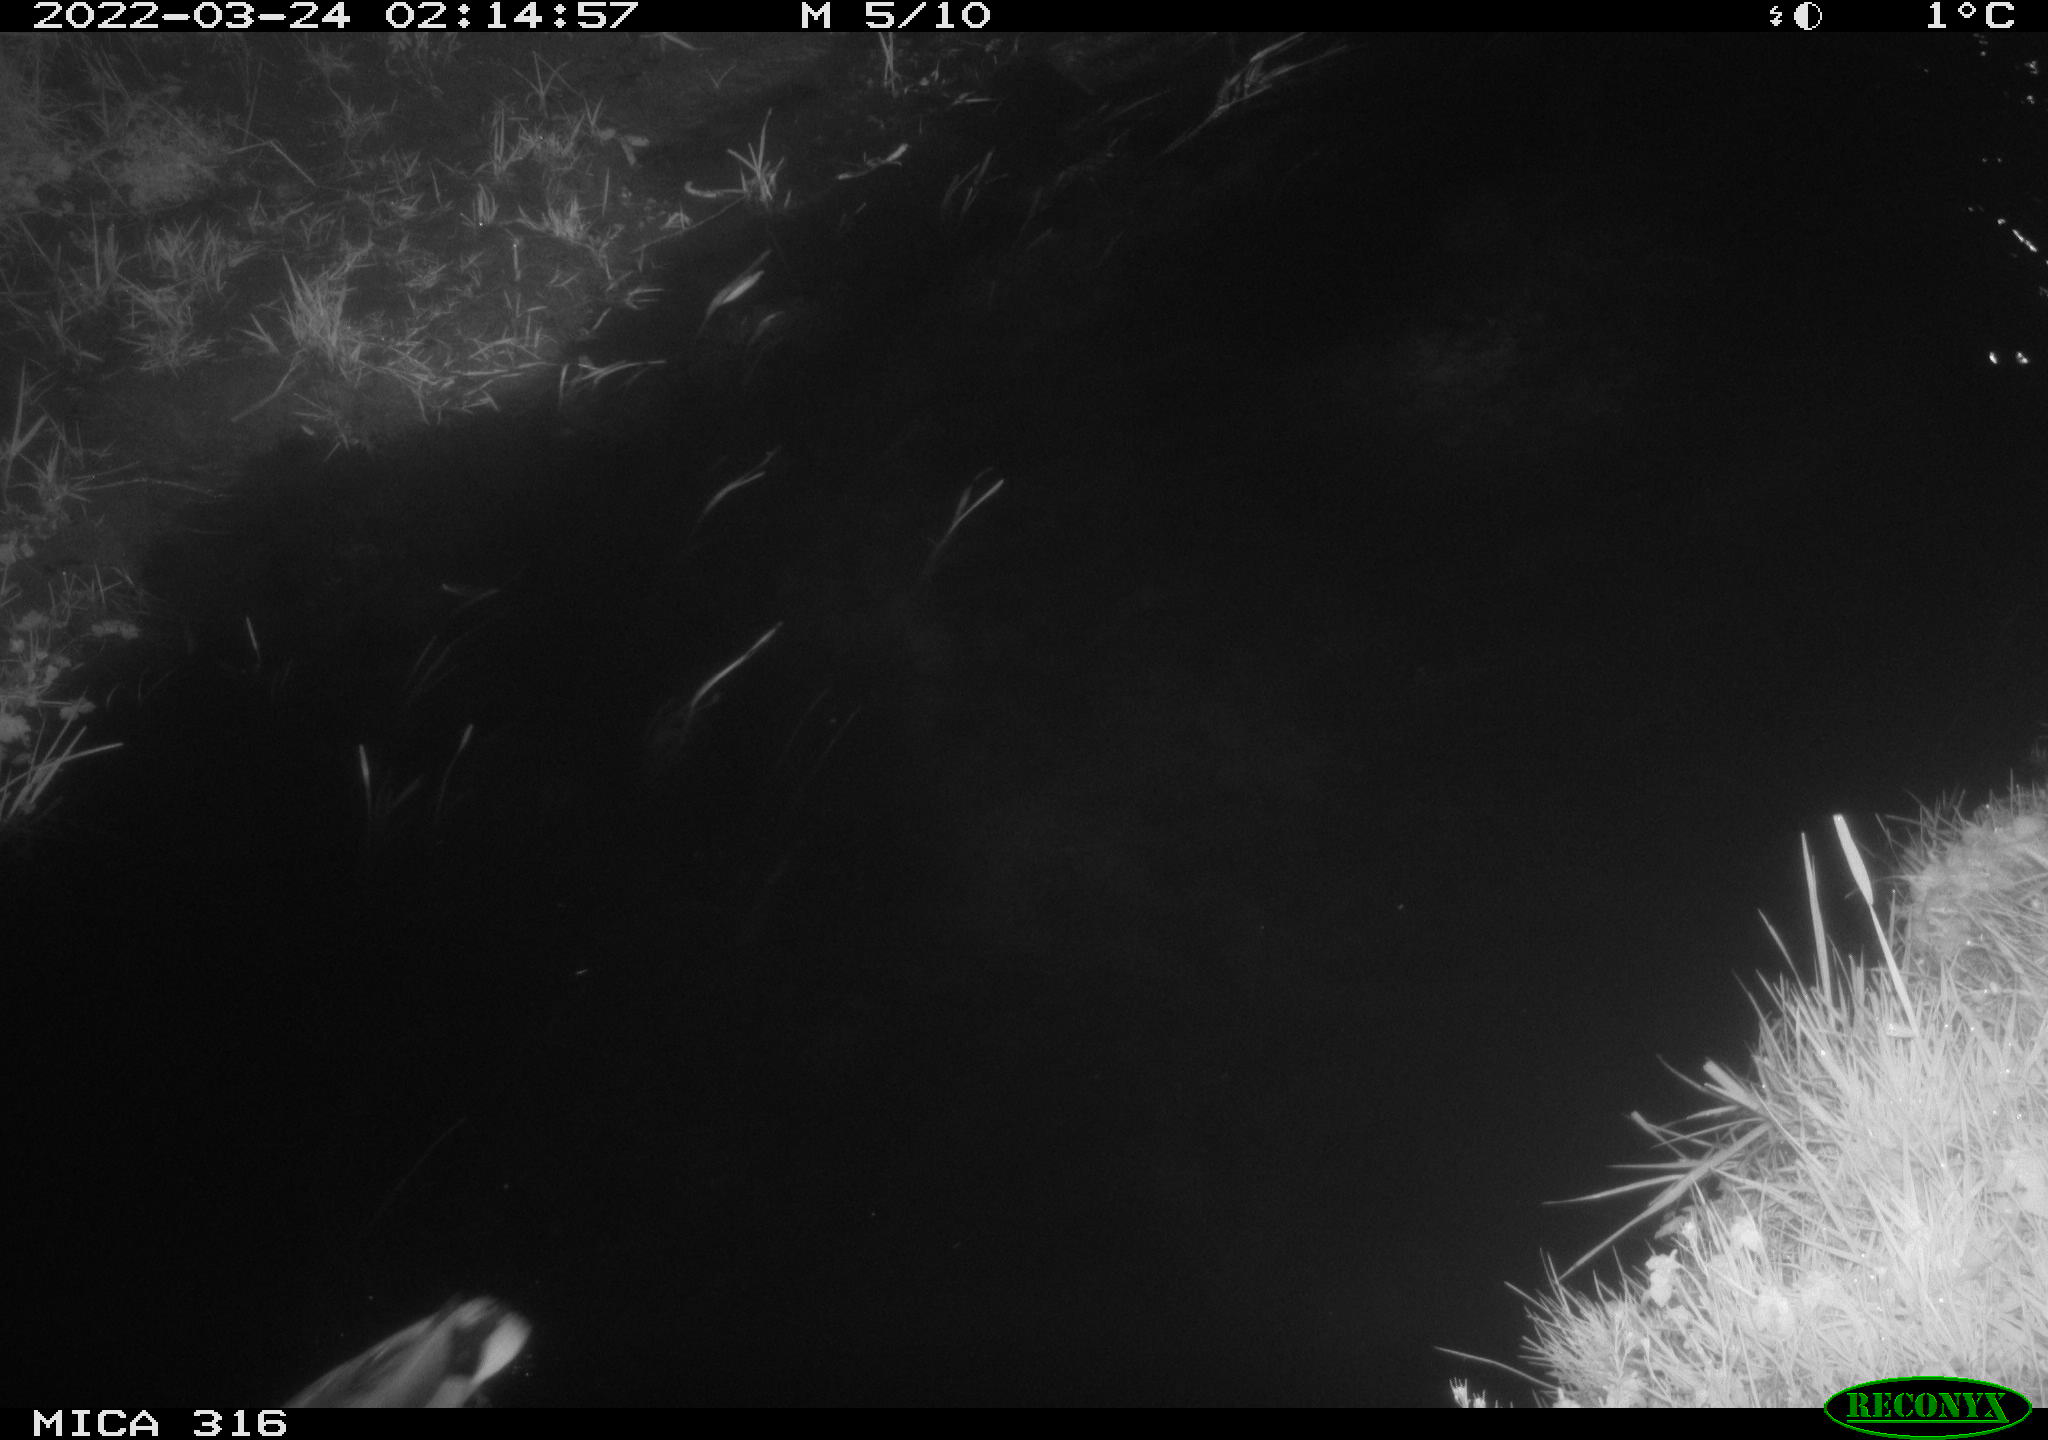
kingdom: Animalia
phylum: Chordata
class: Aves
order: Anseriformes
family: Anatidae
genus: Anas
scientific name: Anas platyrhynchos
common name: Mallard
